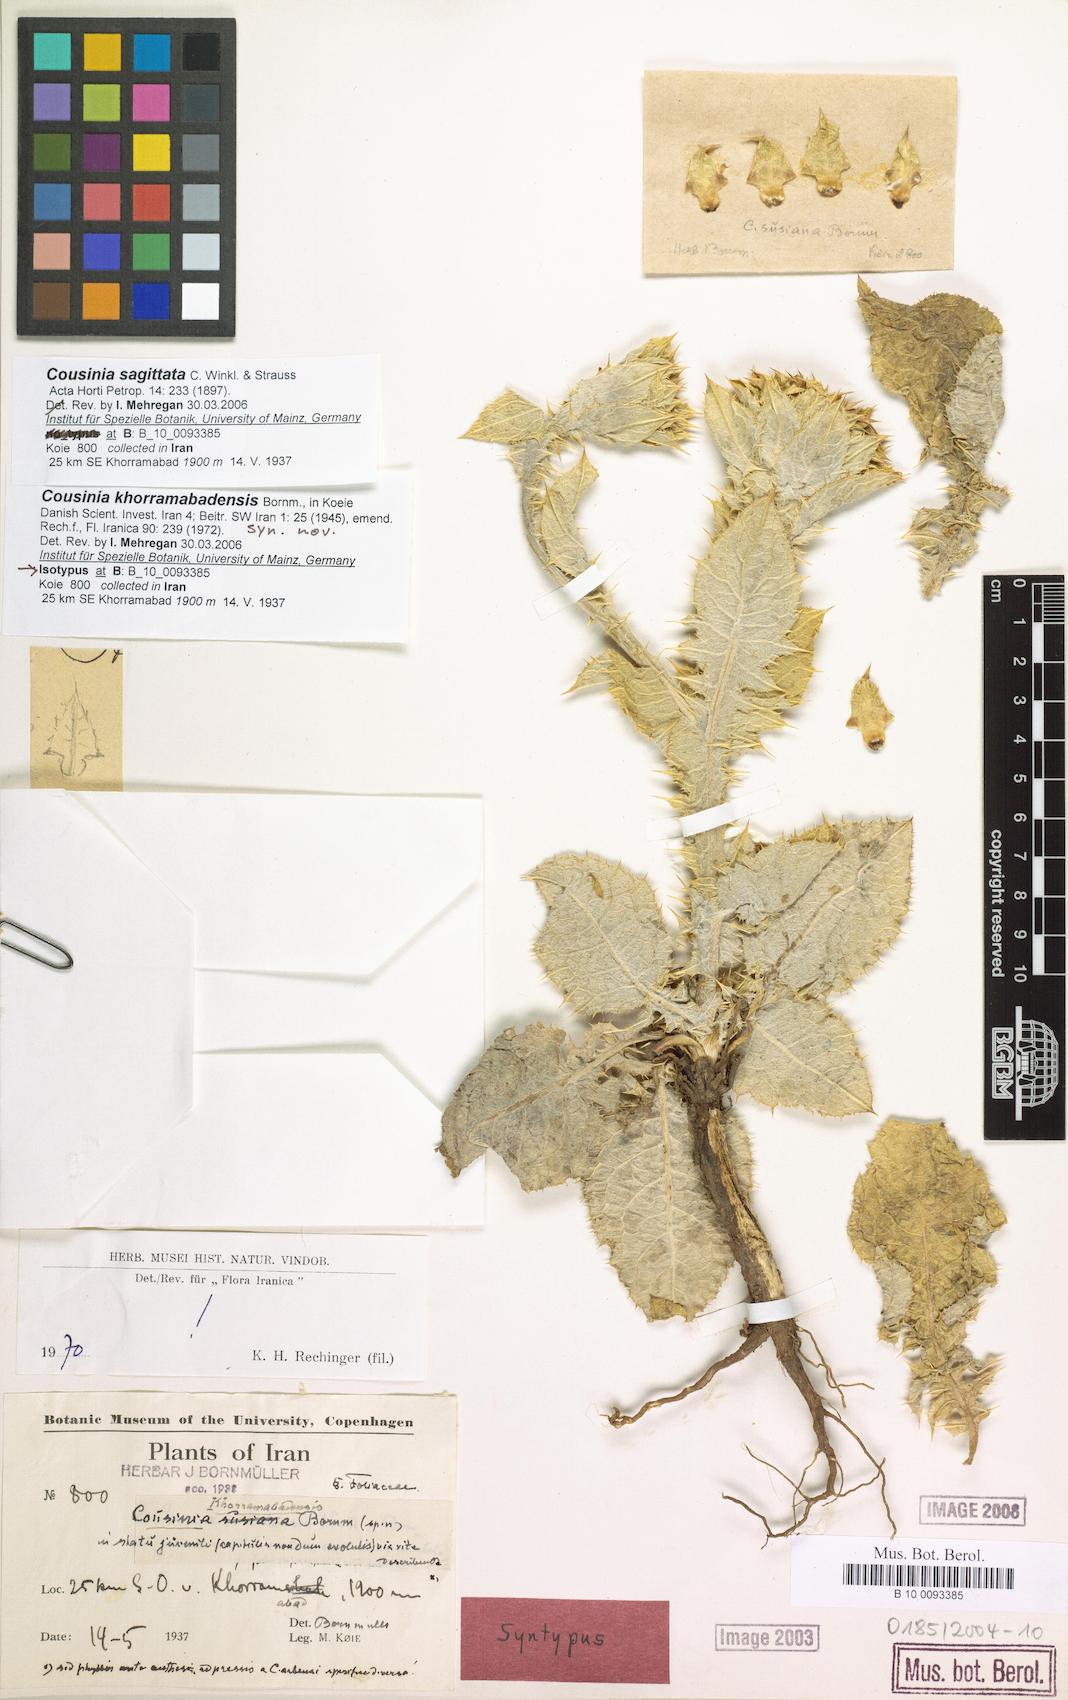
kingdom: Plantae
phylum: Tracheophyta
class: Magnoliopsida
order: Asterales
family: Asteraceae
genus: Cousinia
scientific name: Cousinia sagittata
